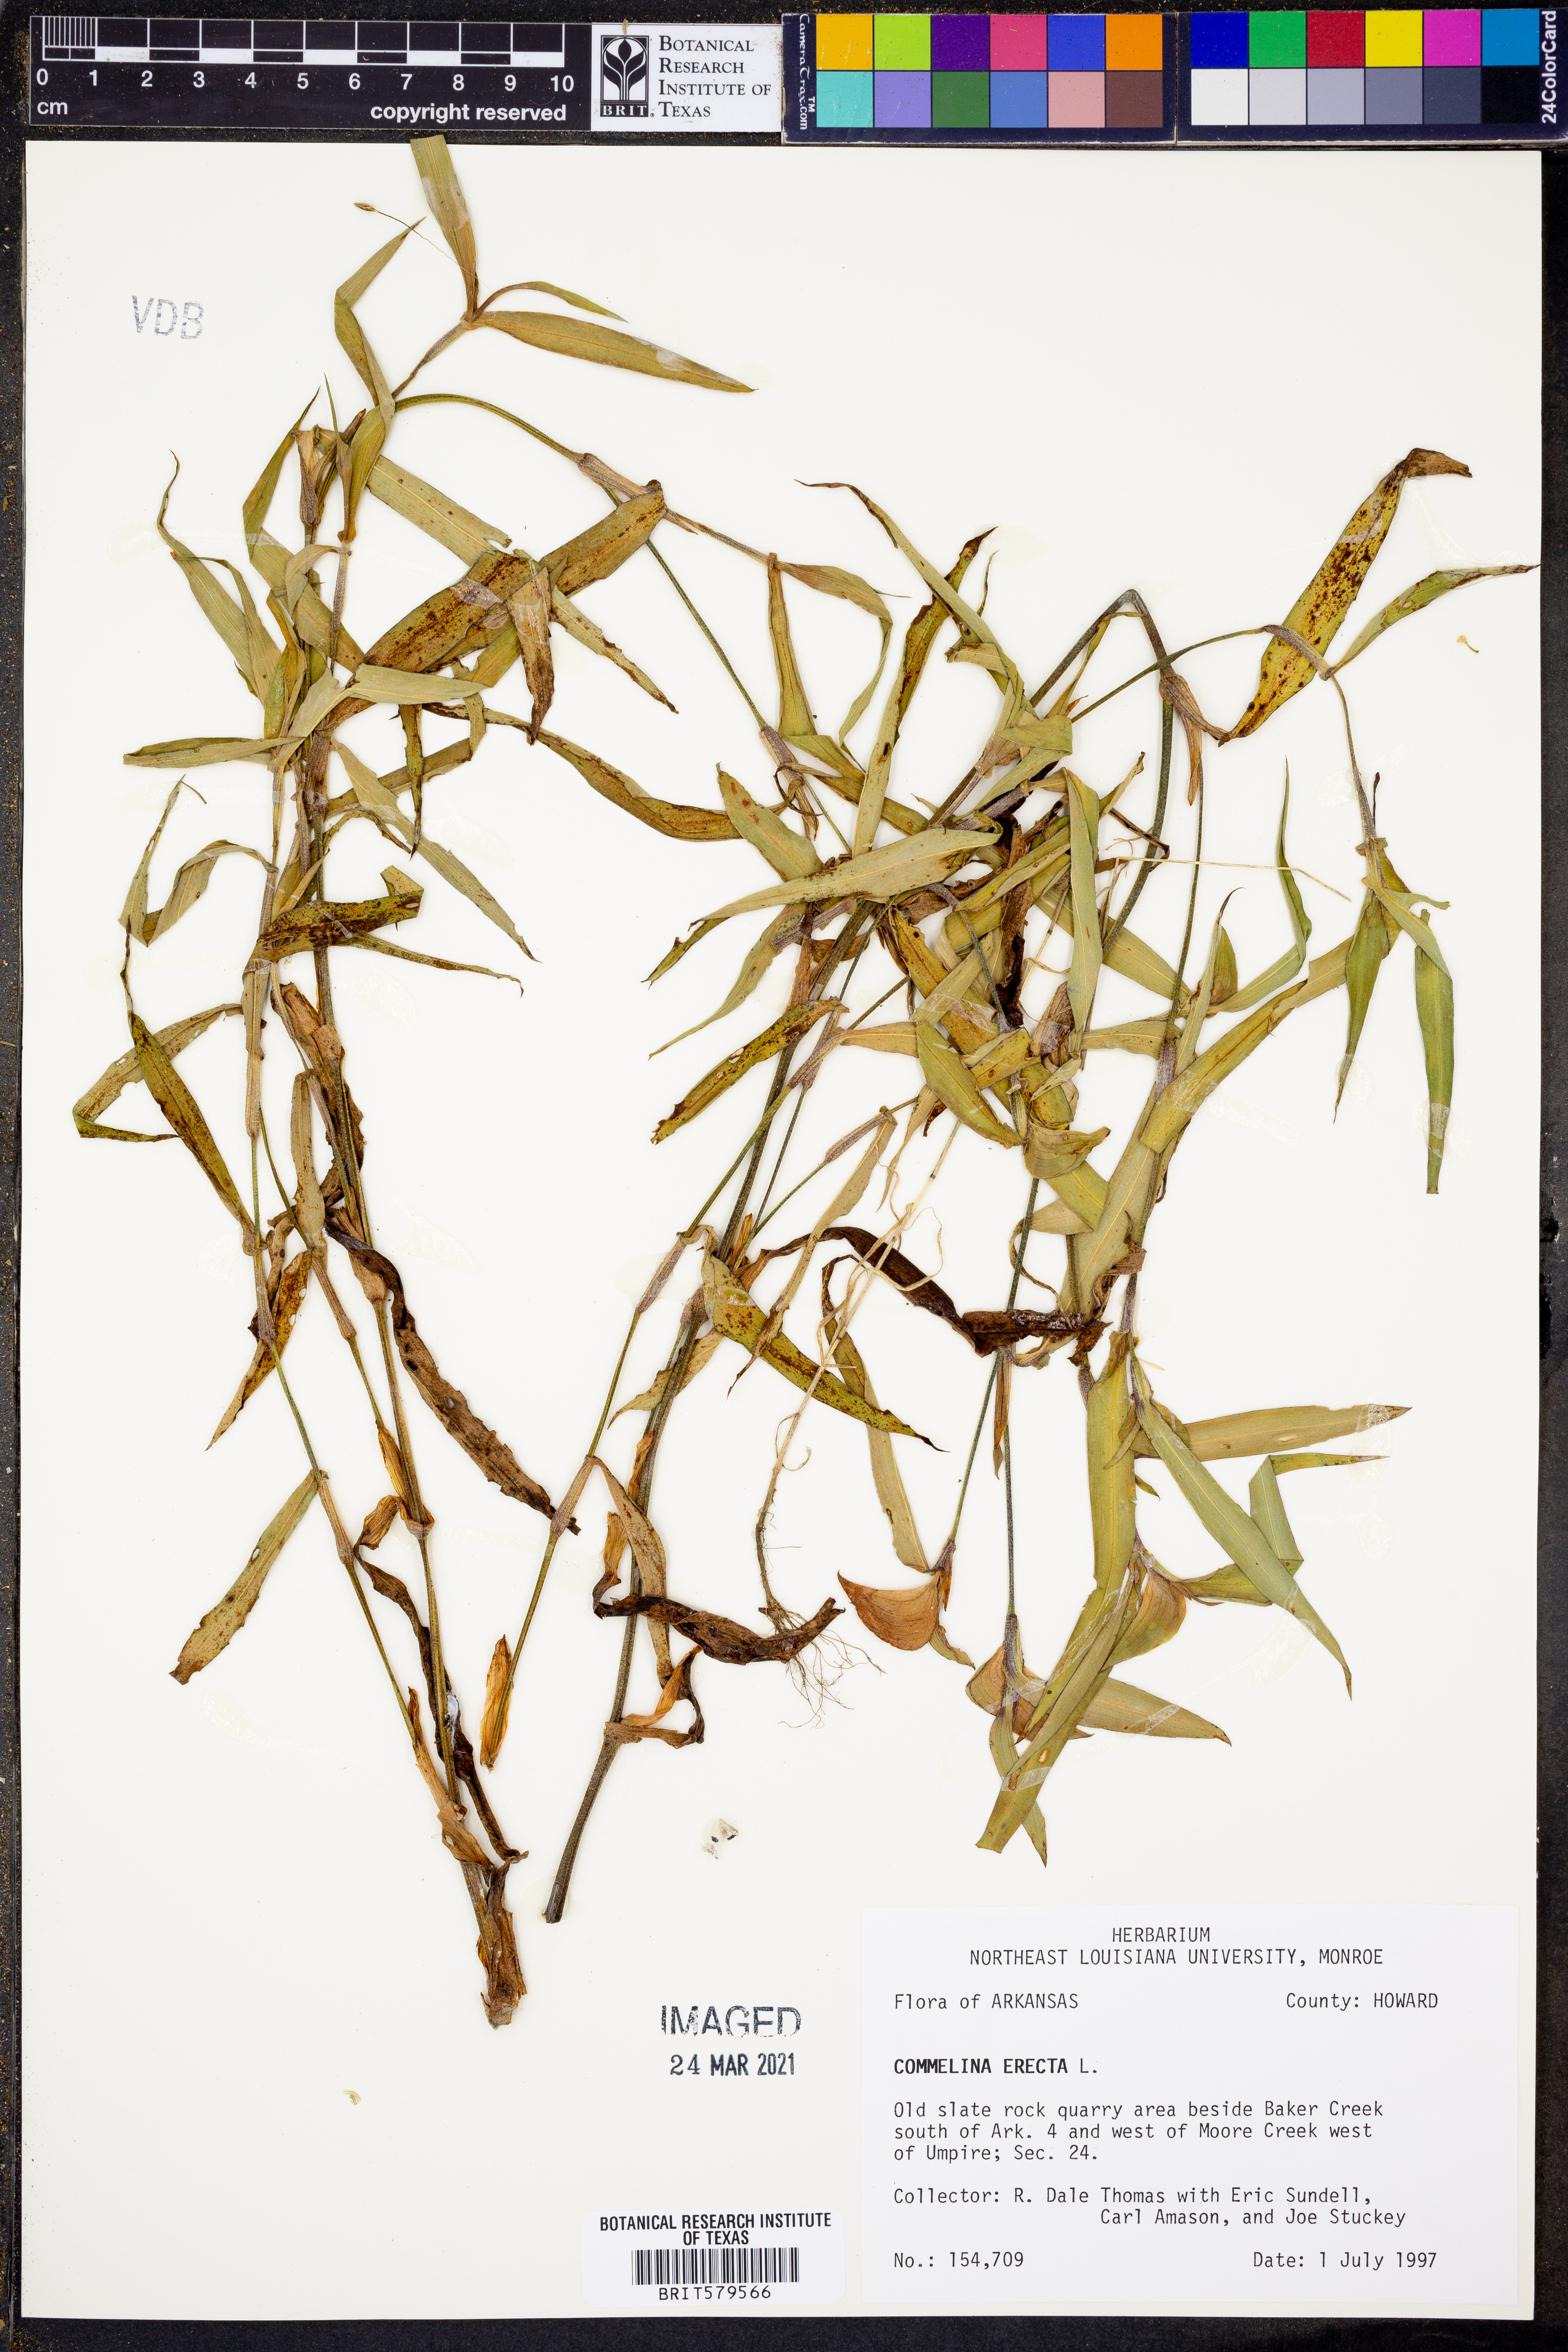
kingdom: Plantae
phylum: Tracheophyta
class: Liliopsida
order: Commelinales
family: Commelinaceae
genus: Commelina
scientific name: Commelina erecta
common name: Blousel blommetjie
